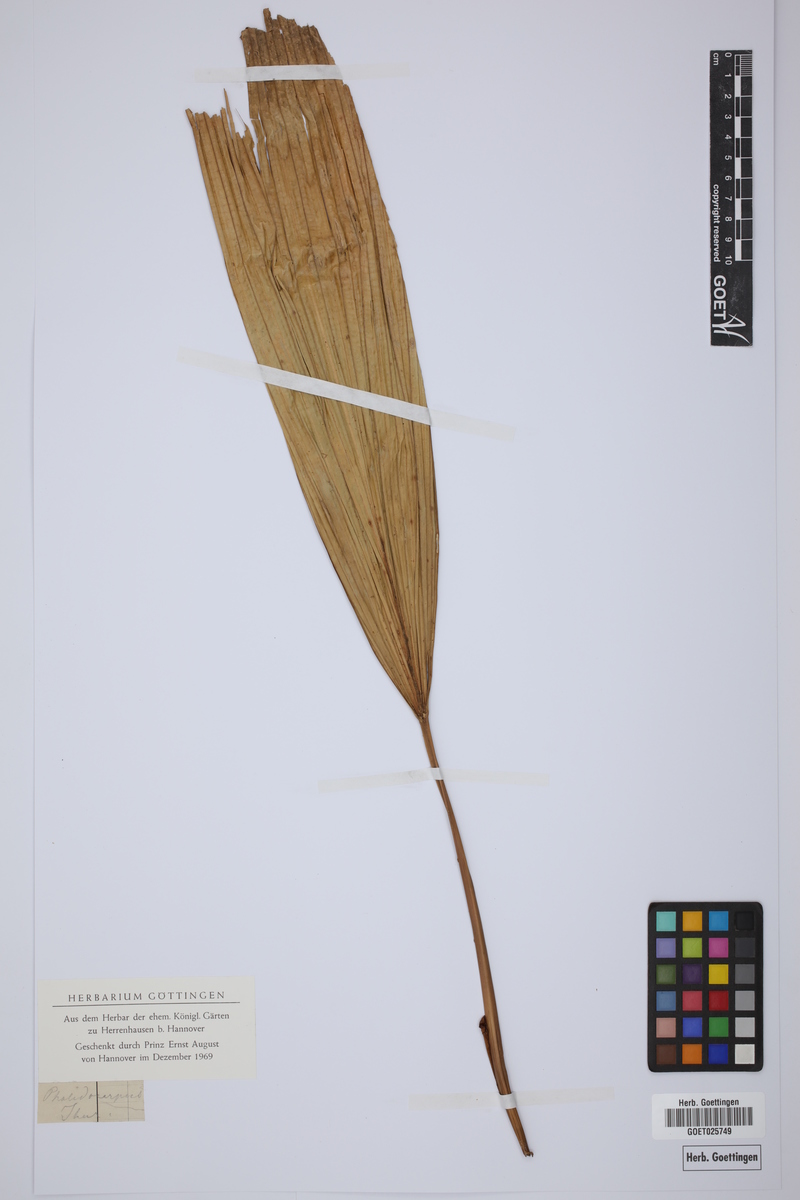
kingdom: Plantae
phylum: Tracheophyta
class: Liliopsida
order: Arecales
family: Arecaceae
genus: Pholidocarpus
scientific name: Pholidocarpus ihur
